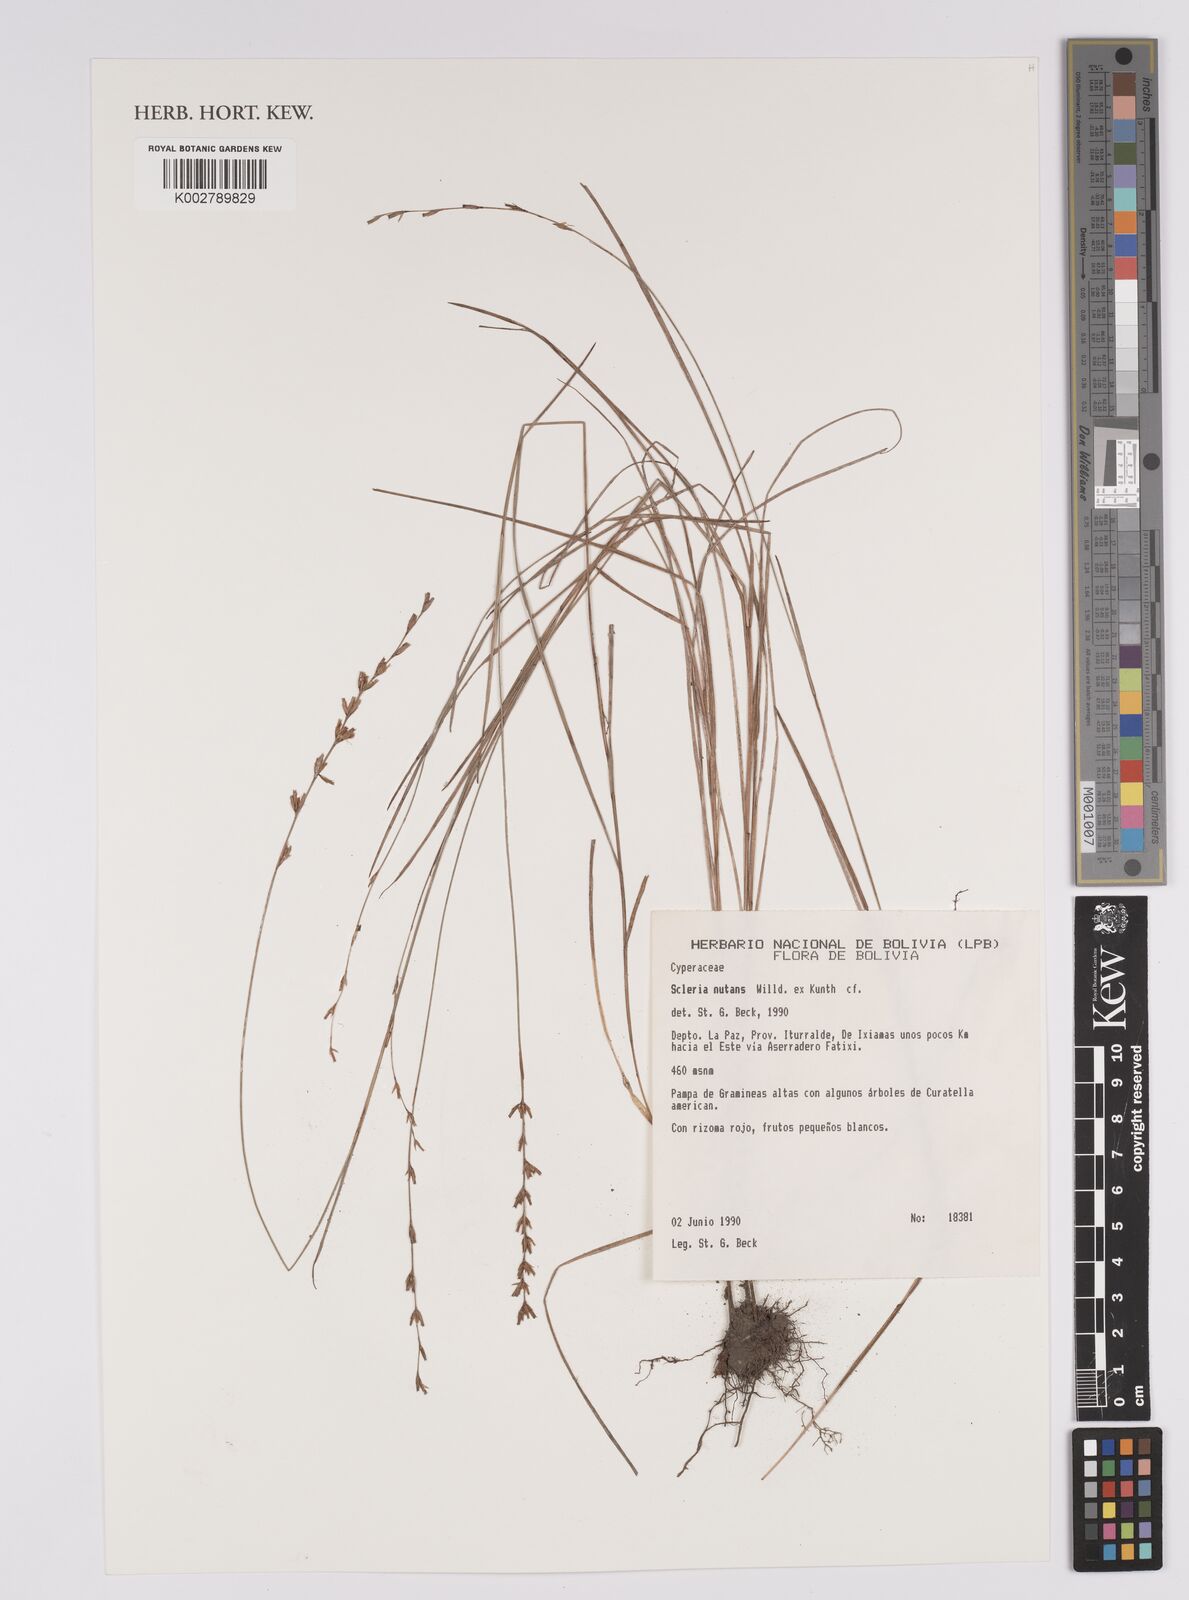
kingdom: Plantae
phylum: Tracheophyta
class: Liliopsida
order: Poales
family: Cyperaceae
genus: Scleria
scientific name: Scleria
